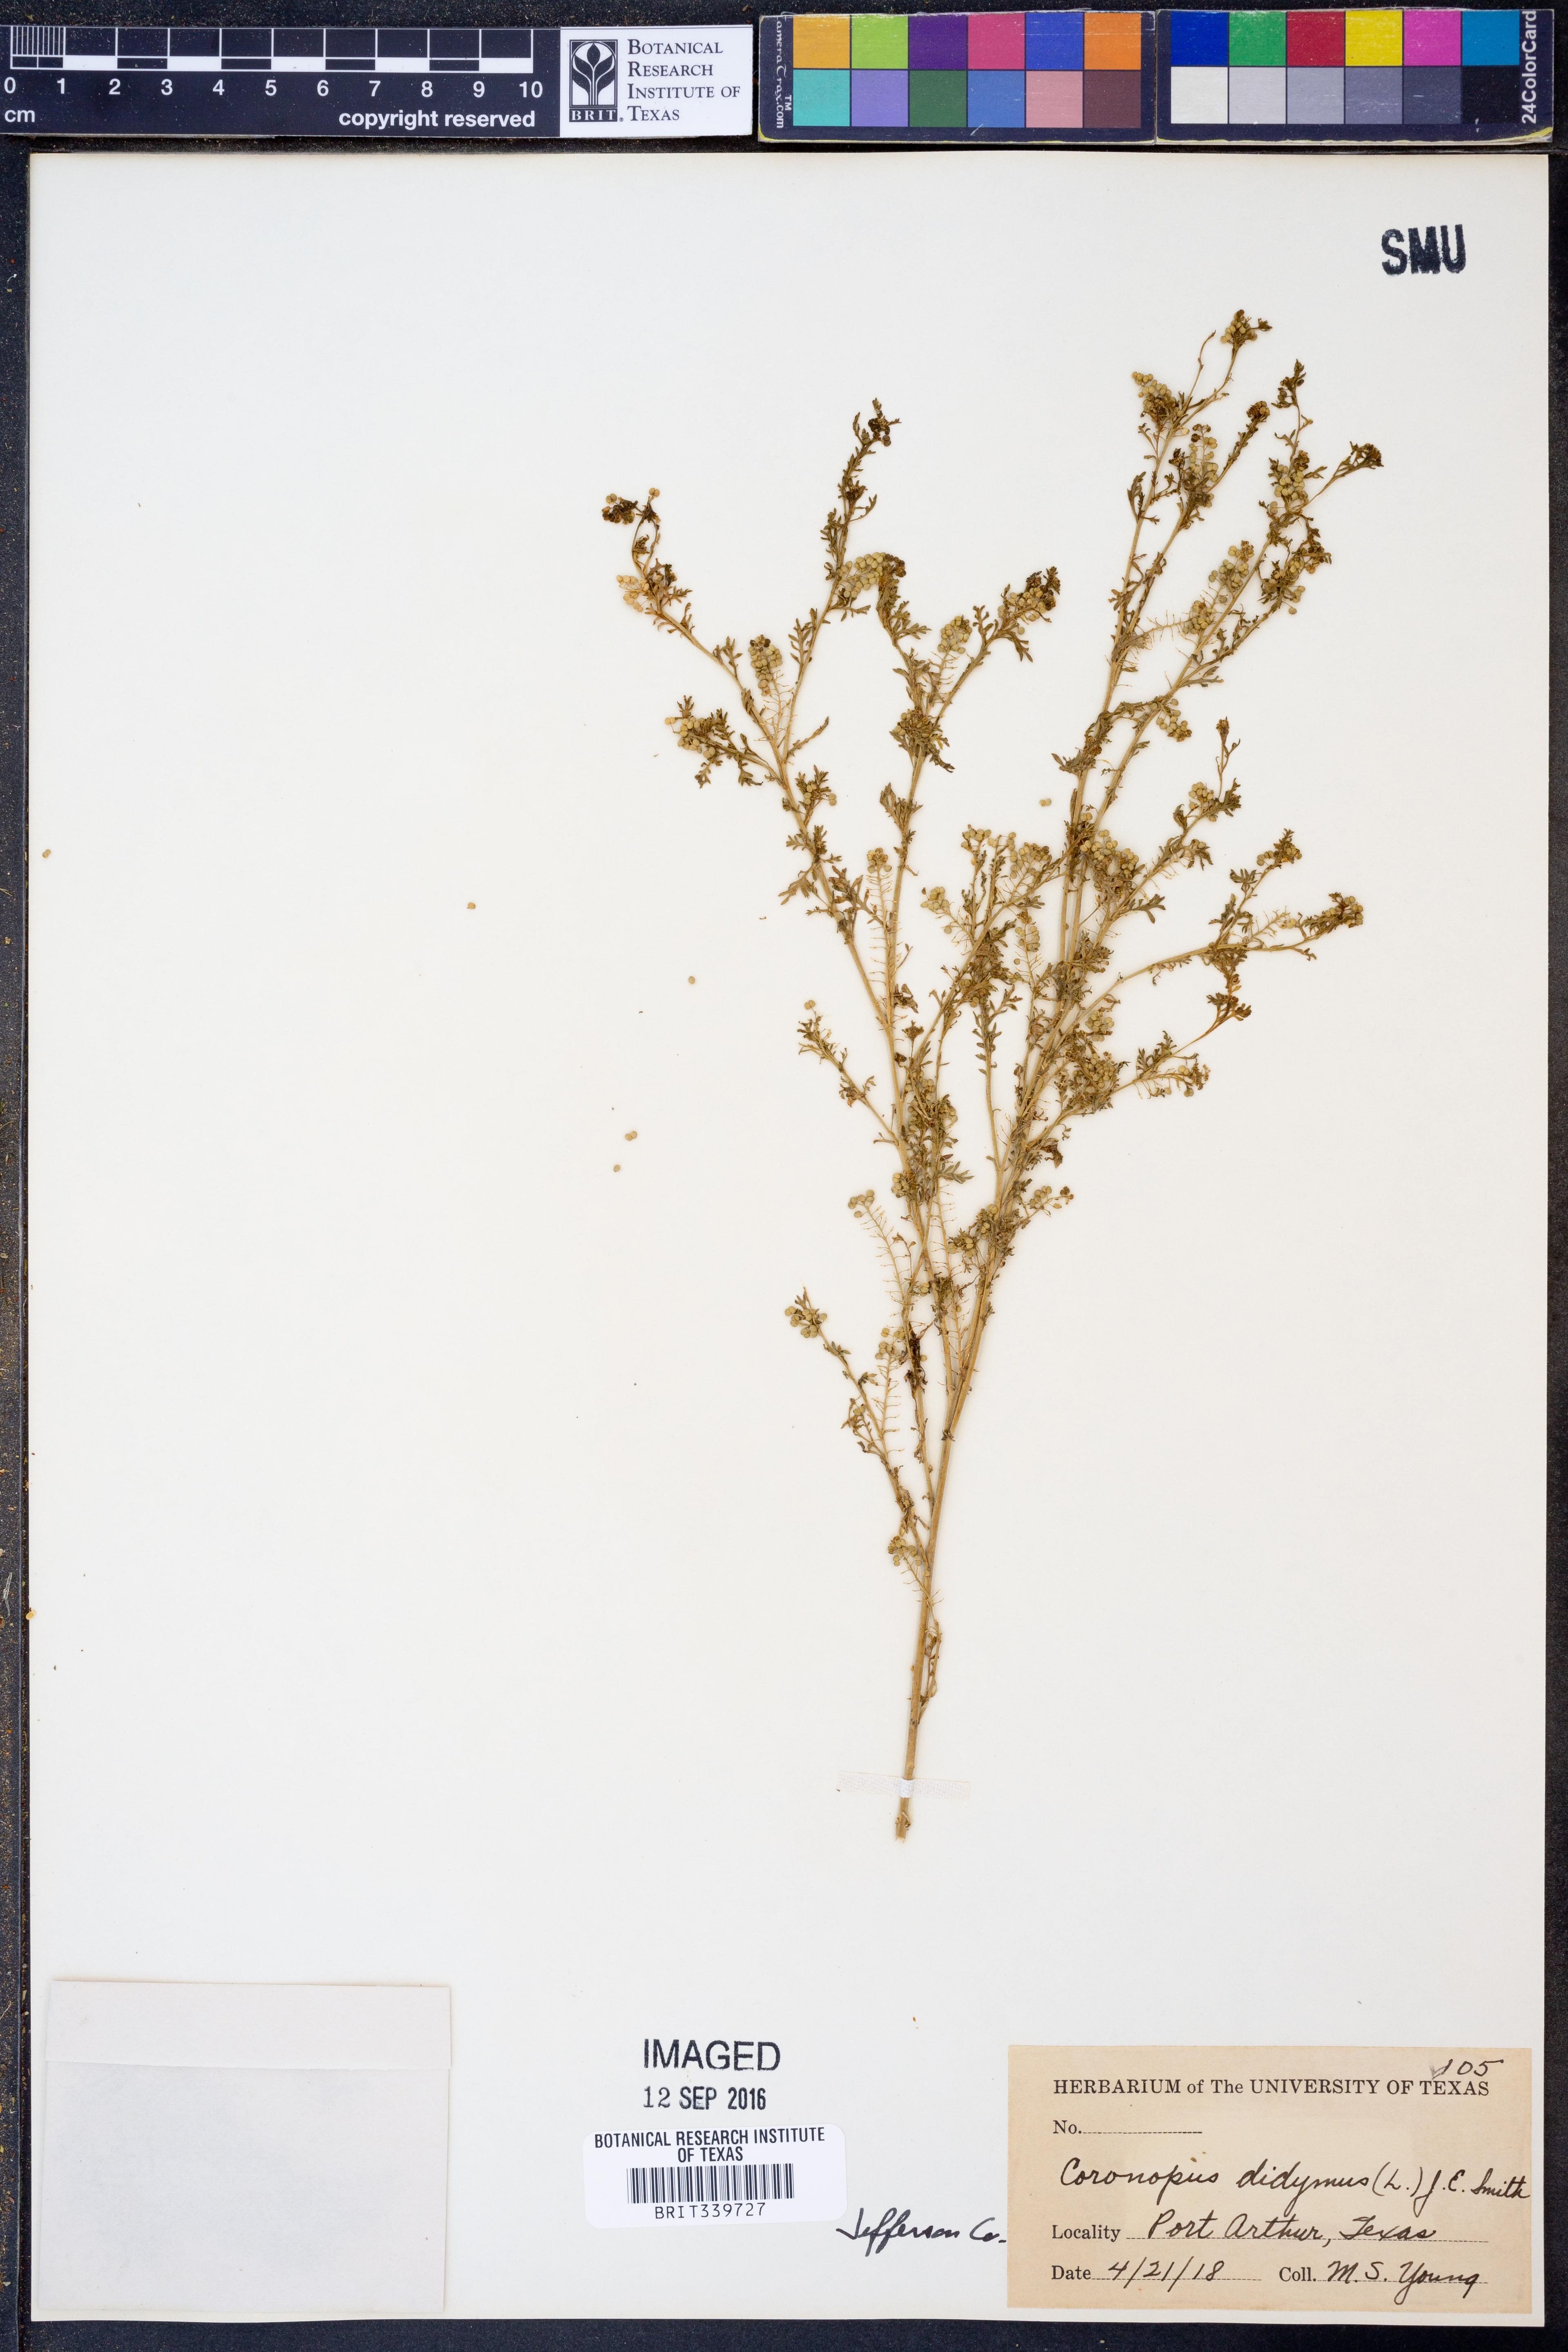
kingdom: Plantae
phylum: Tracheophyta
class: Magnoliopsida
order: Brassicales
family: Brassicaceae
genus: Lepidium
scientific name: Lepidium didymum
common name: Lesser swinecress
